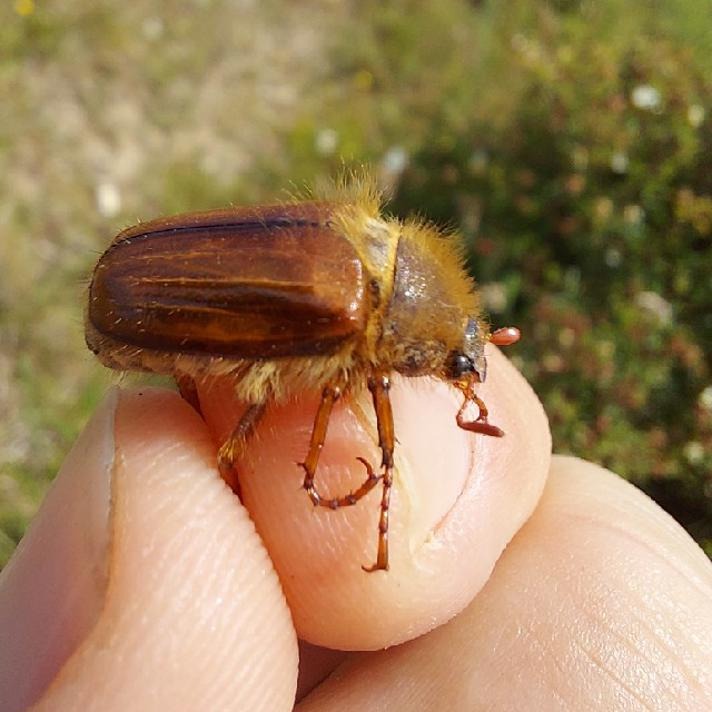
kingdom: Animalia
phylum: Arthropoda
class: Insecta
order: Coleoptera
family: Scarabaeidae
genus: Amphimallon
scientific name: Amphimallon ochraceum
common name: Hedeoldenborre
